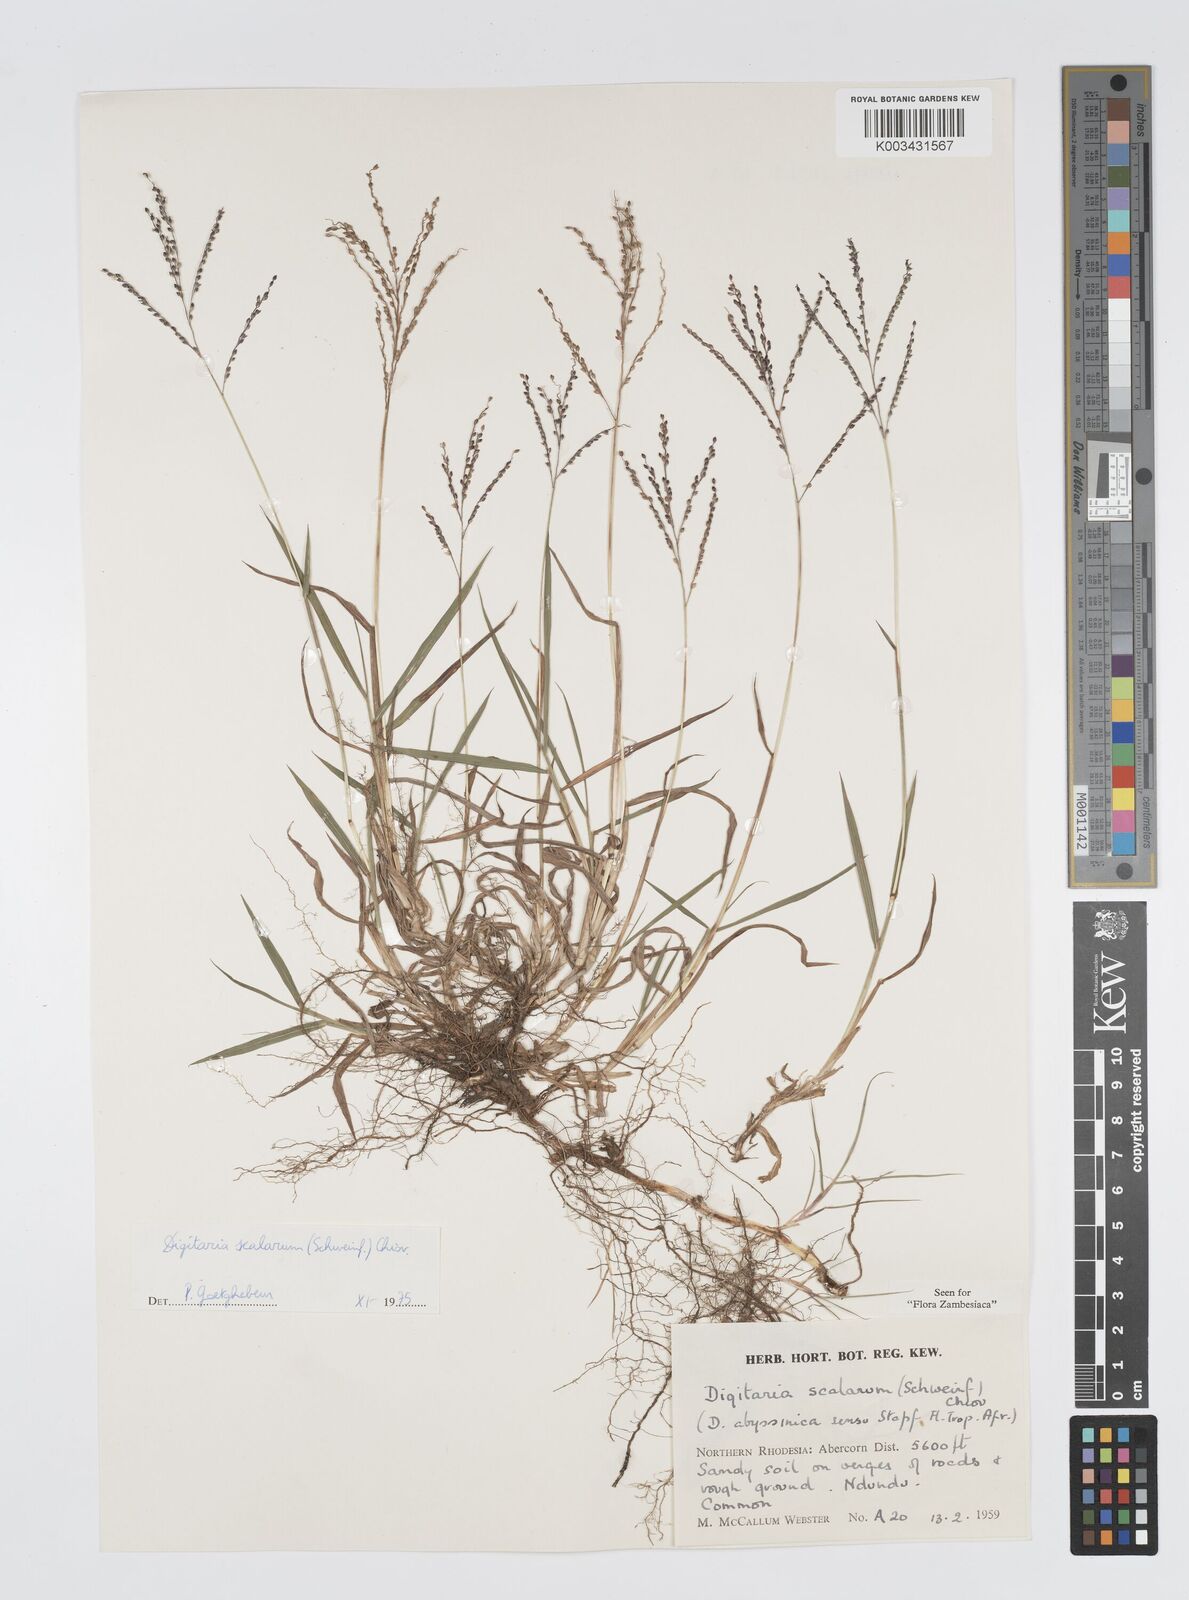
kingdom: Plantae
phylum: Tracheophyta
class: Liliopsida
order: Poales
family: Poaceae
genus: Digitaria
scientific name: Digitaria abyssinica
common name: African couchgrass
